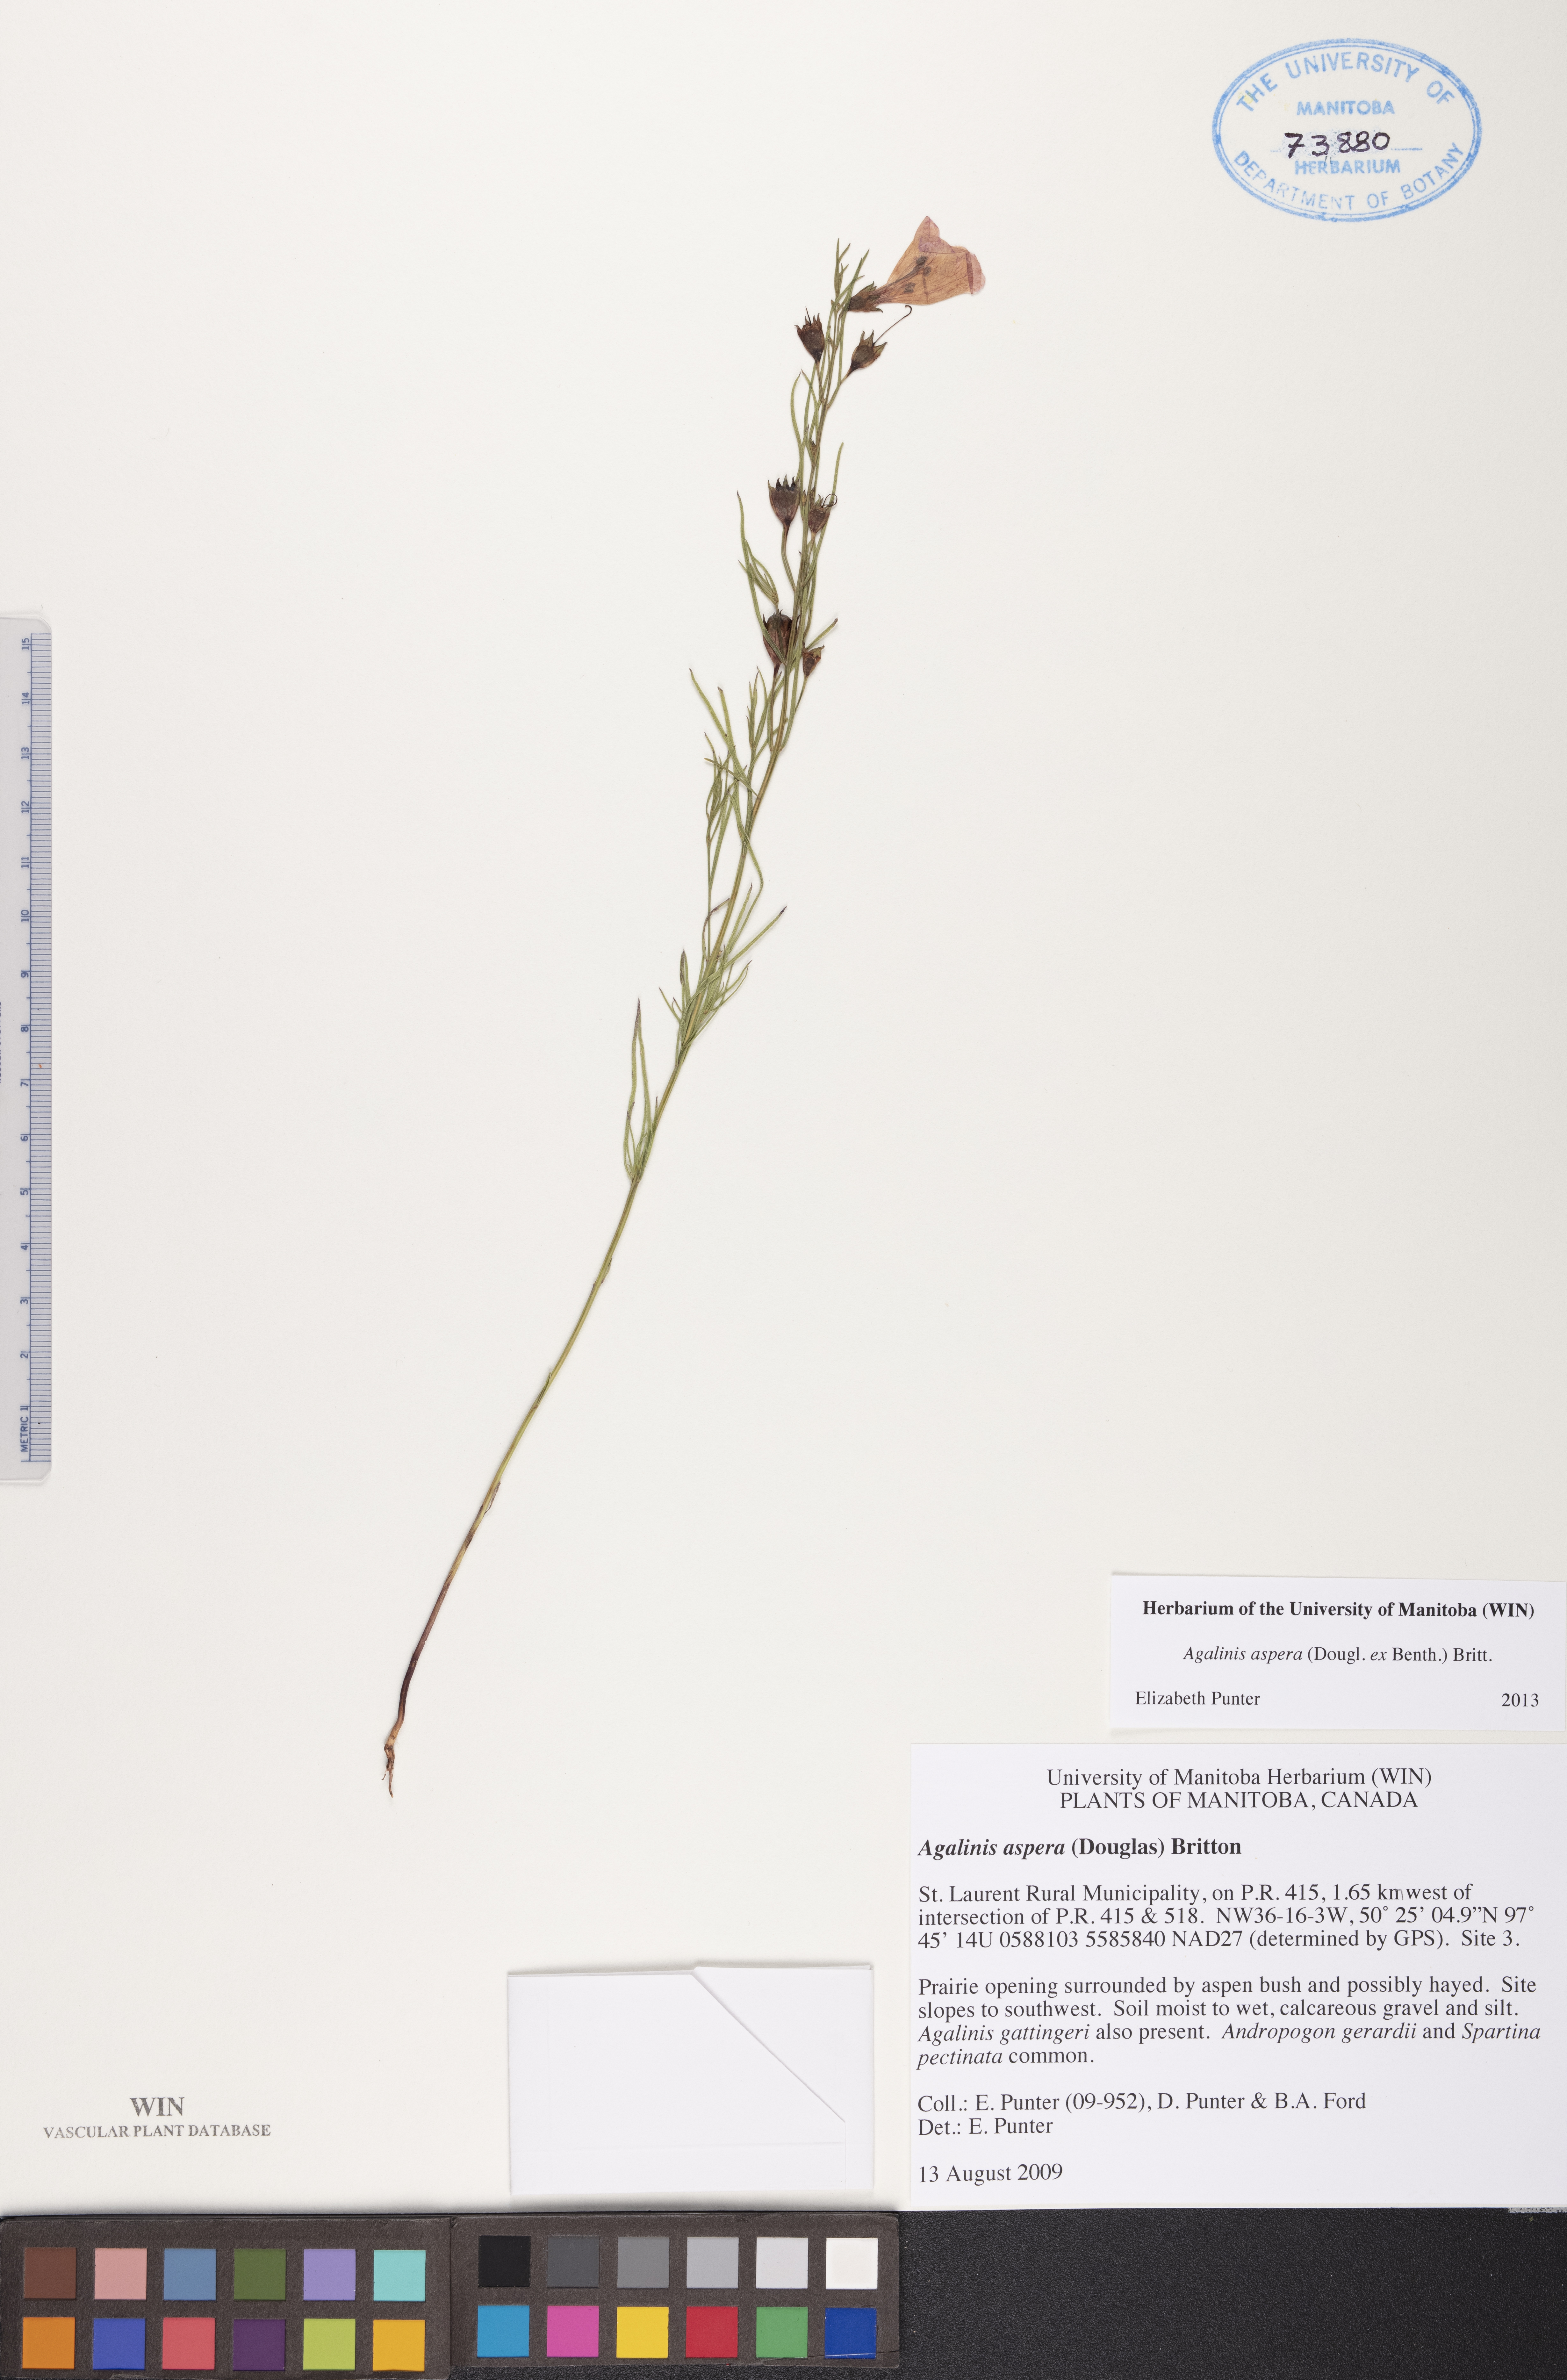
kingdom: Plantae
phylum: Tracheophyta
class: Magnoliopsida
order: Lamiales
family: Orobanchaceae
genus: Agalinis
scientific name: Agalinis aspera
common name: Rough agalinis
